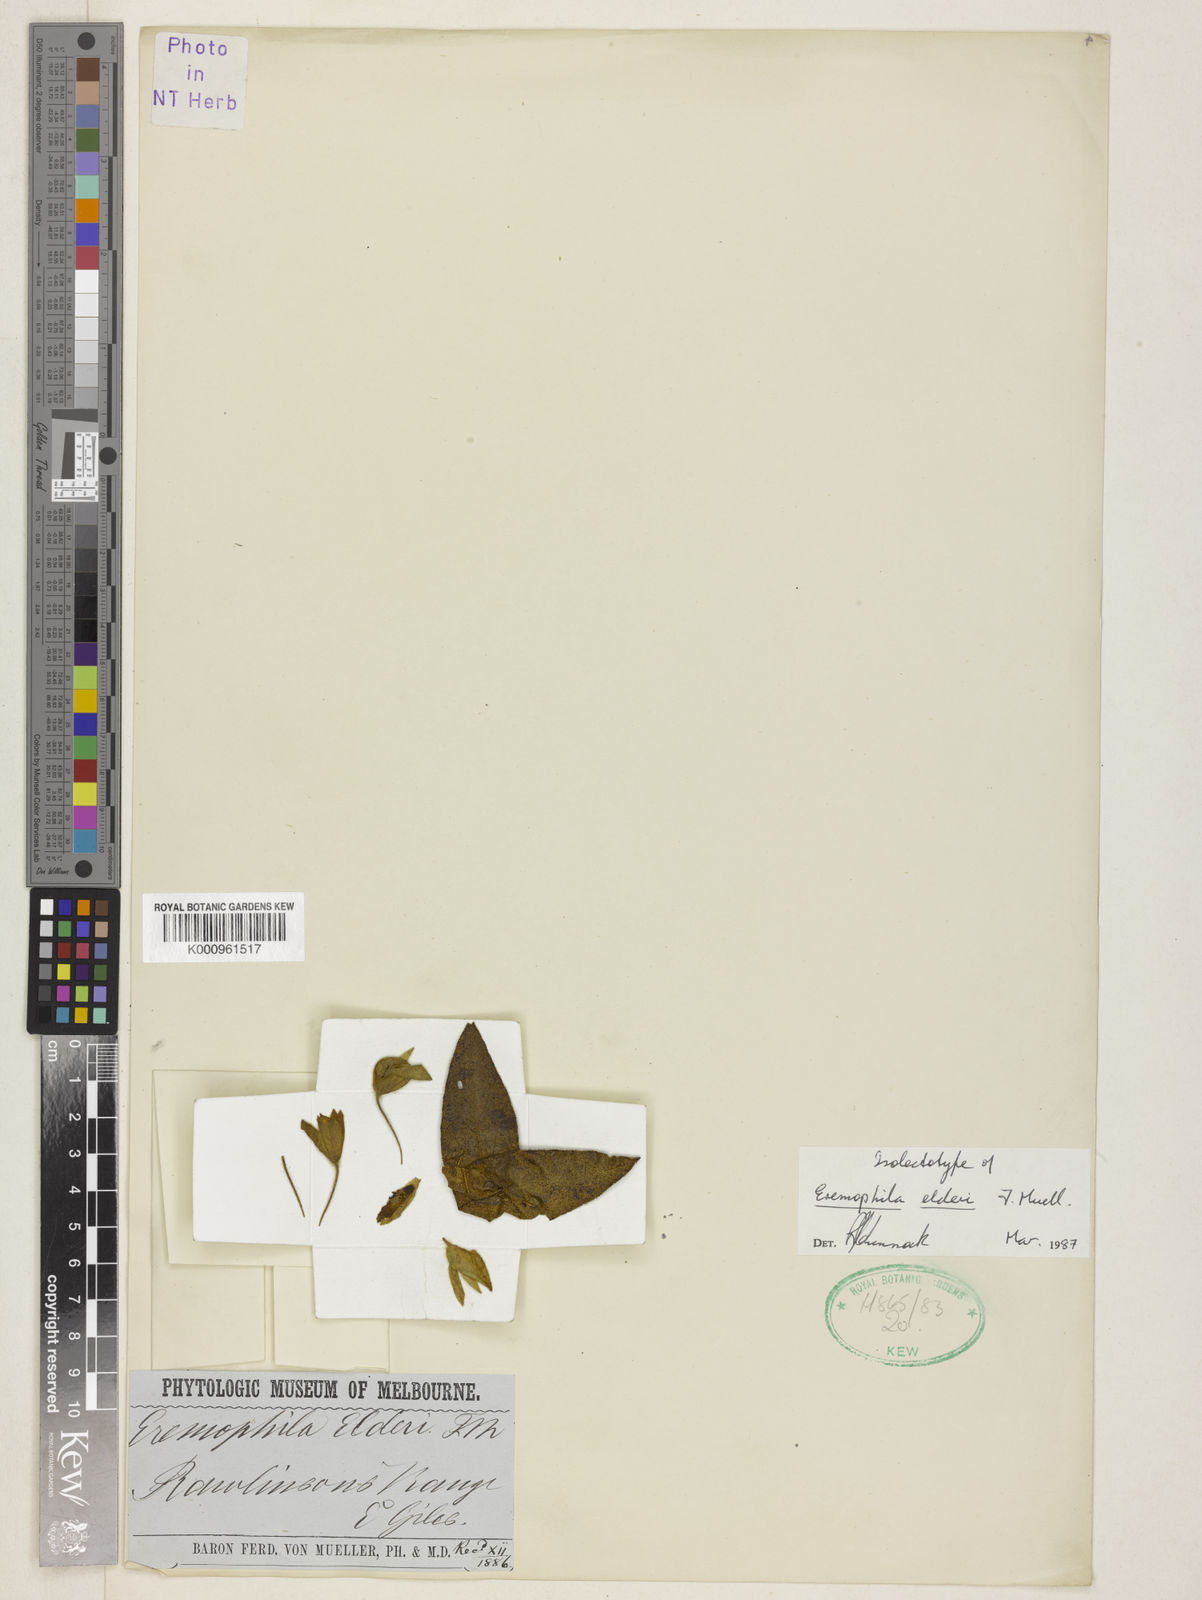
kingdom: Plantae
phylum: Tracheophyta
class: Magnoliopsida
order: Lamiales
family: Scrophulariaceae
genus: Eremophila
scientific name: Eremophila elderi
